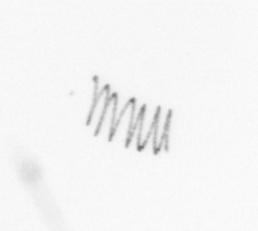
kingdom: Chromista
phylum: Ochrophyta
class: Bacillariophyceae
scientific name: Bacillariophyceae
